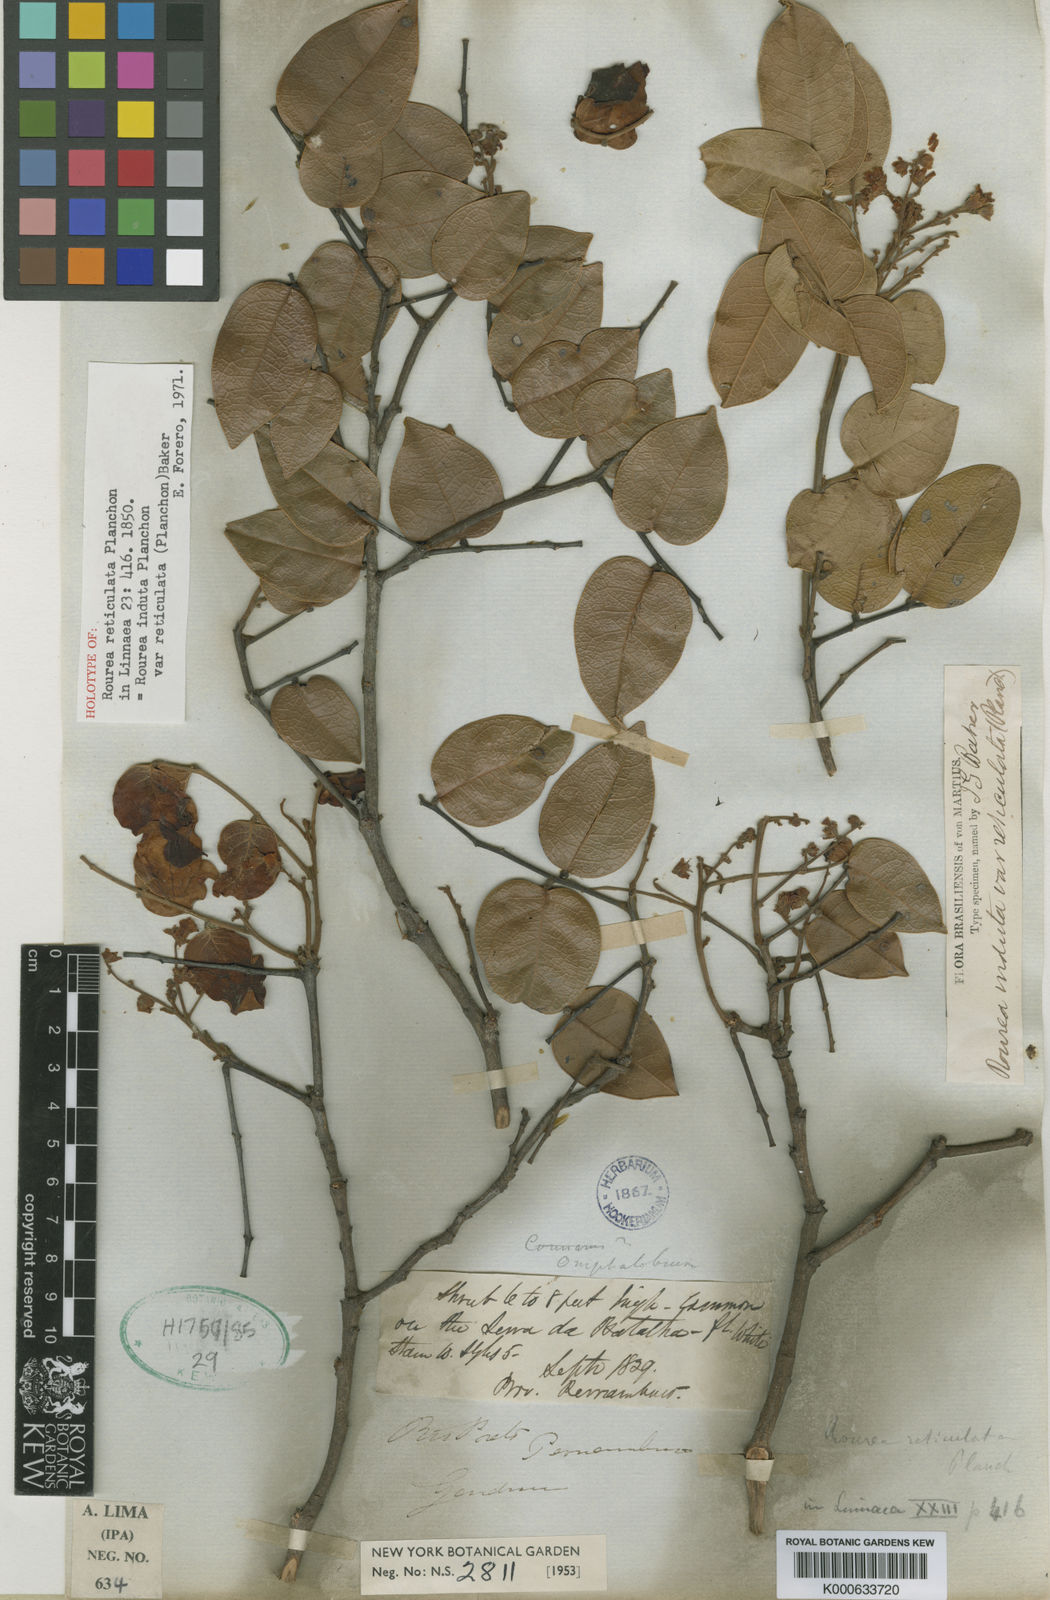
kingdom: Plantae
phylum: Tracheophyta
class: Magnoliopsida
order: Oxalidales
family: Connaraceae
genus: Rourea
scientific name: Rourea induta
